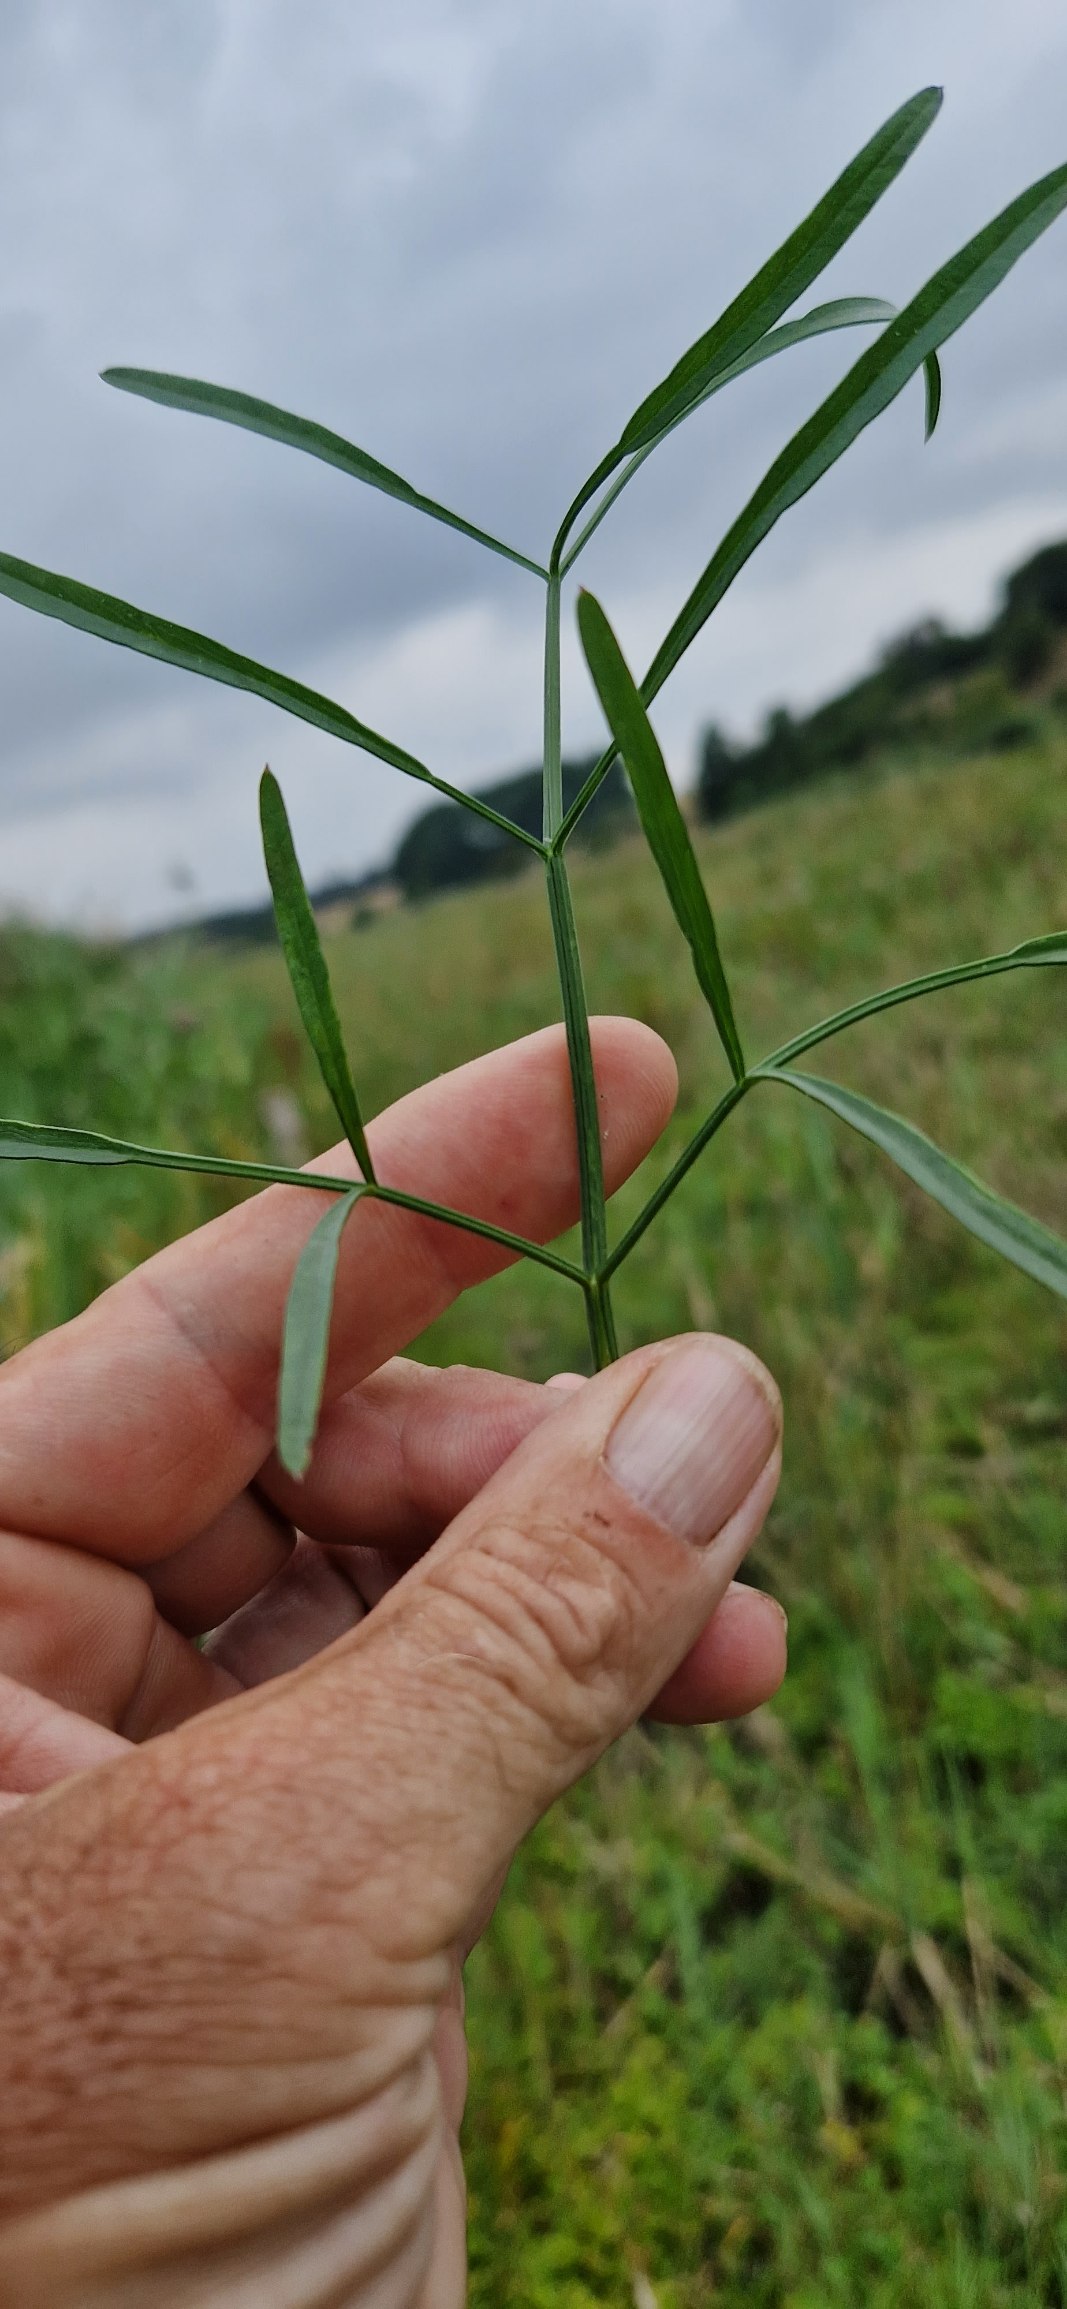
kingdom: Plantae
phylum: Tracheophyta
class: Magnoliopsida
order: Apiales
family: Apiaceae
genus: Oenanthe
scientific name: Oenanthe lachenalii
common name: Eng-klaseskærm
